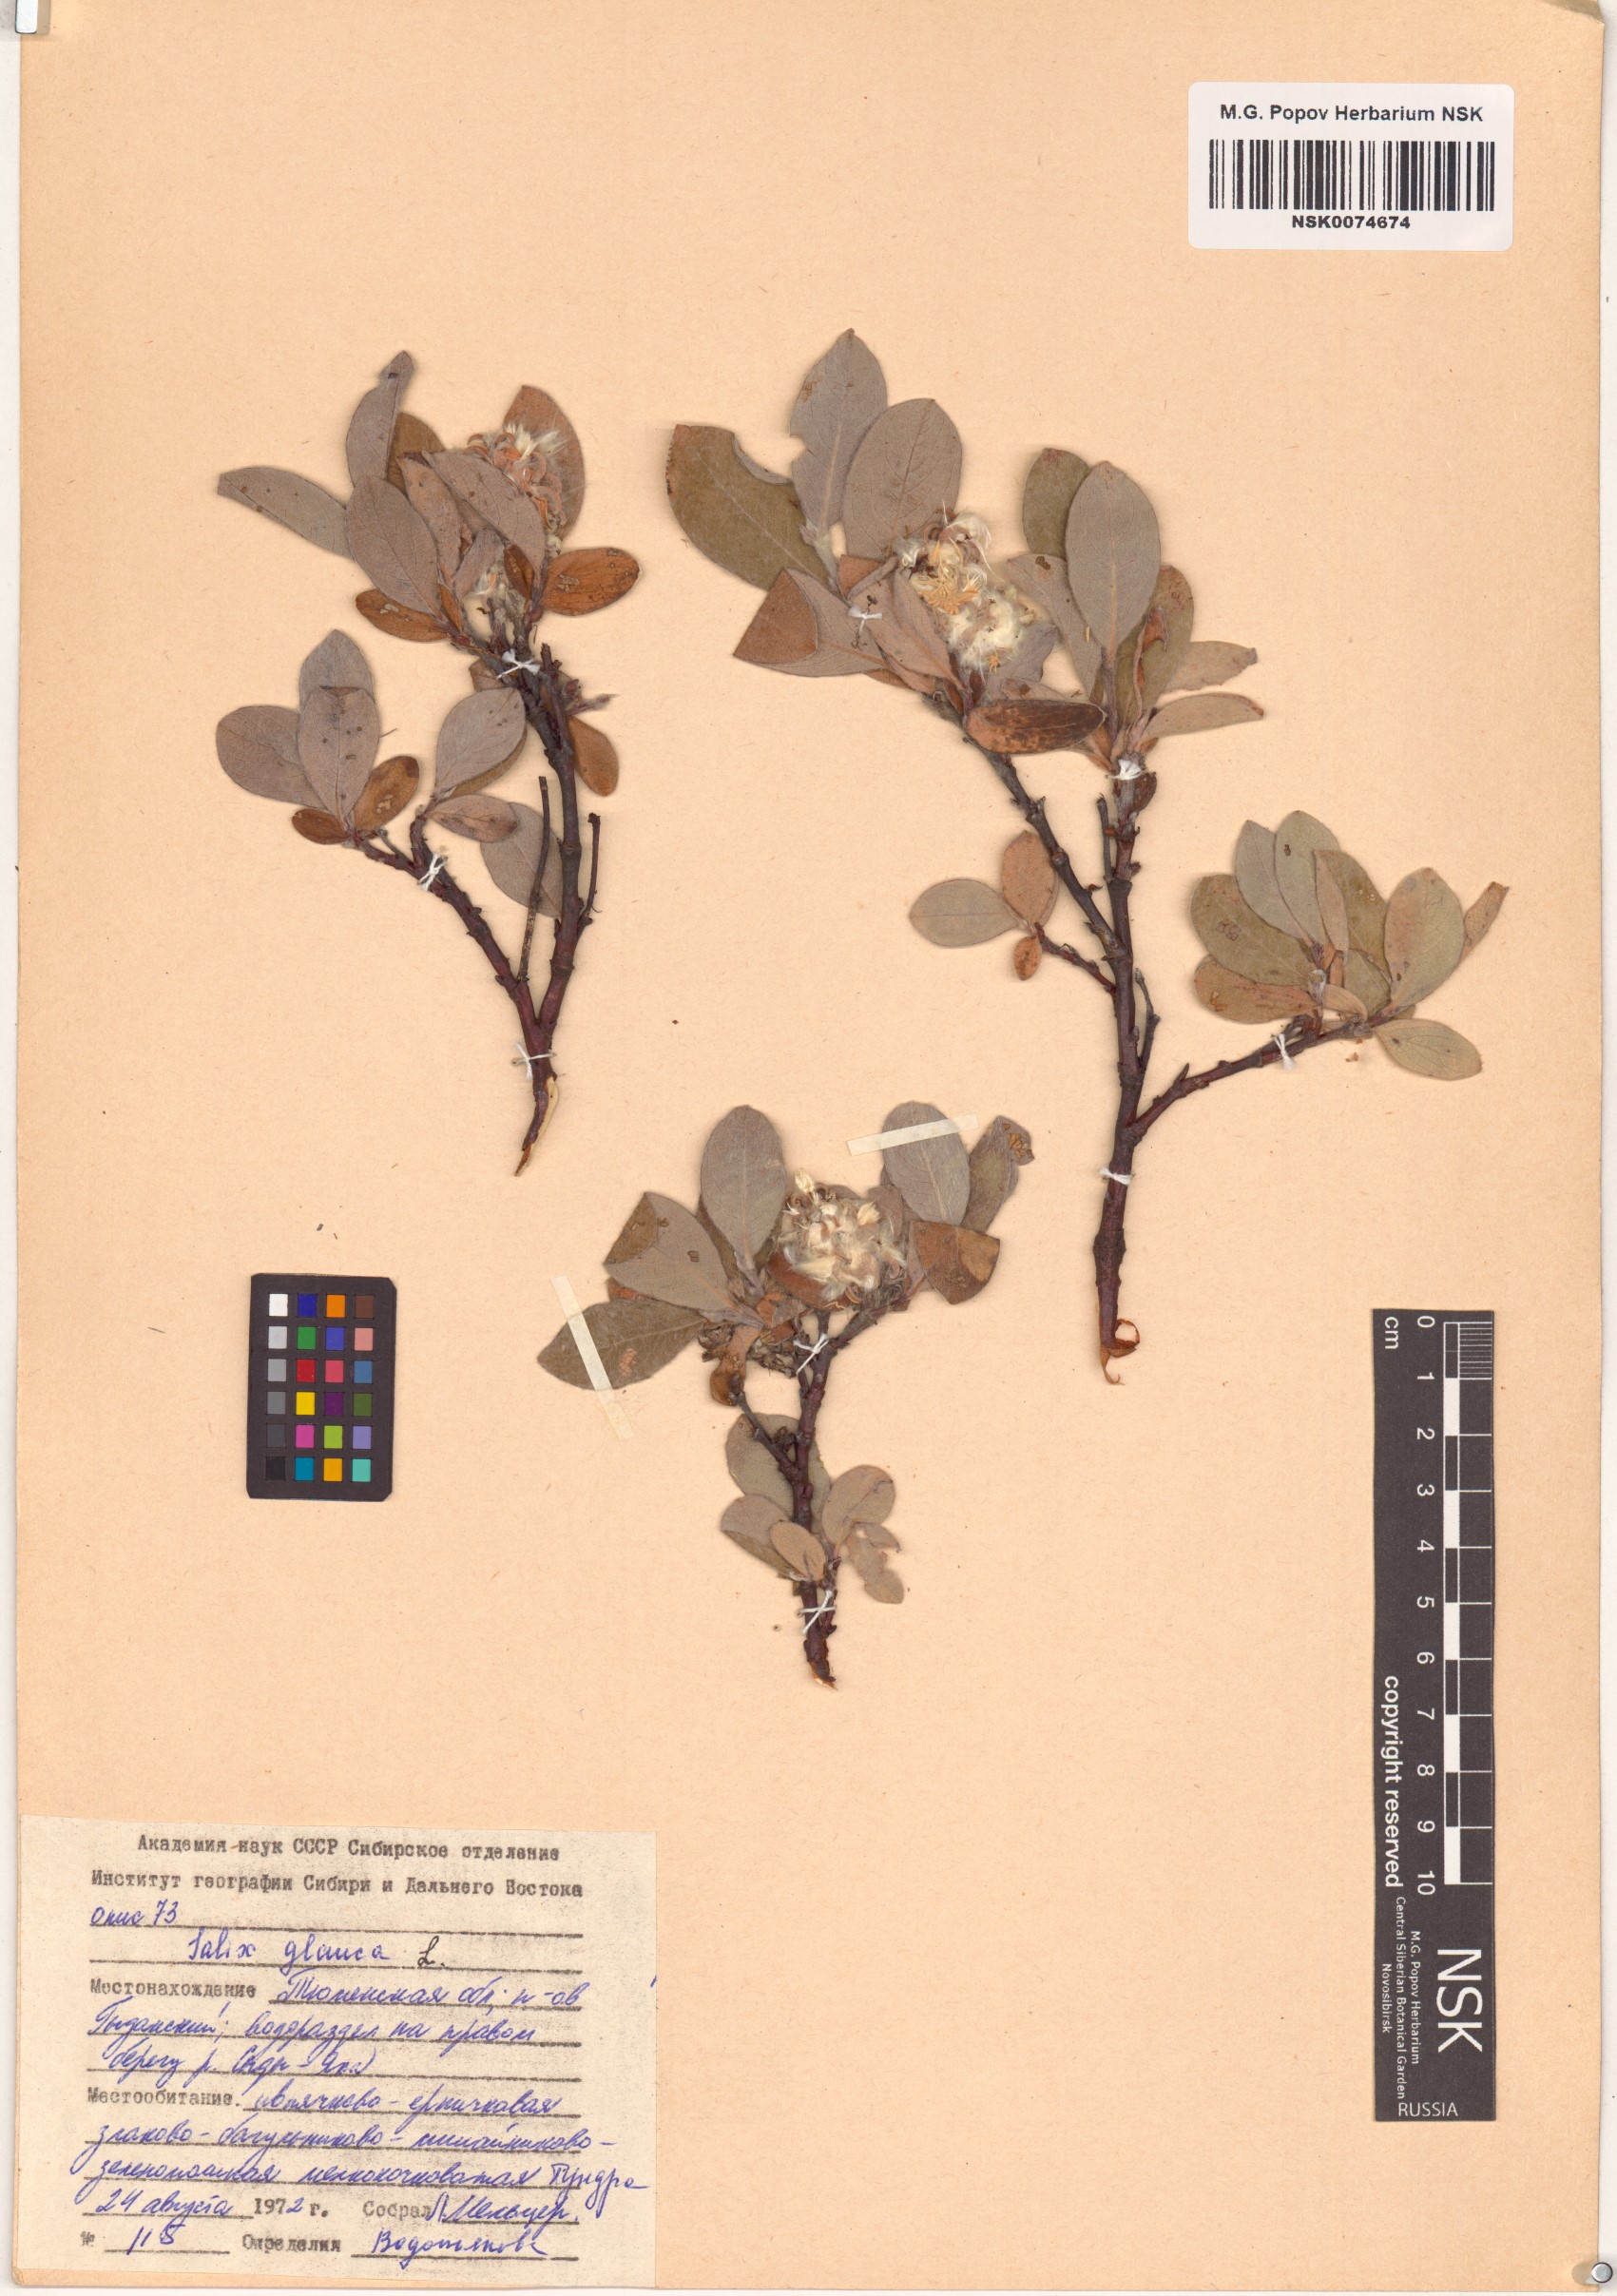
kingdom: Plantae
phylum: Tracheophyta
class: Magnoliopsida
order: Malpighiales
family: Salicaceae
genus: Salix
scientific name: Salix glauca
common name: Glaucous willow
